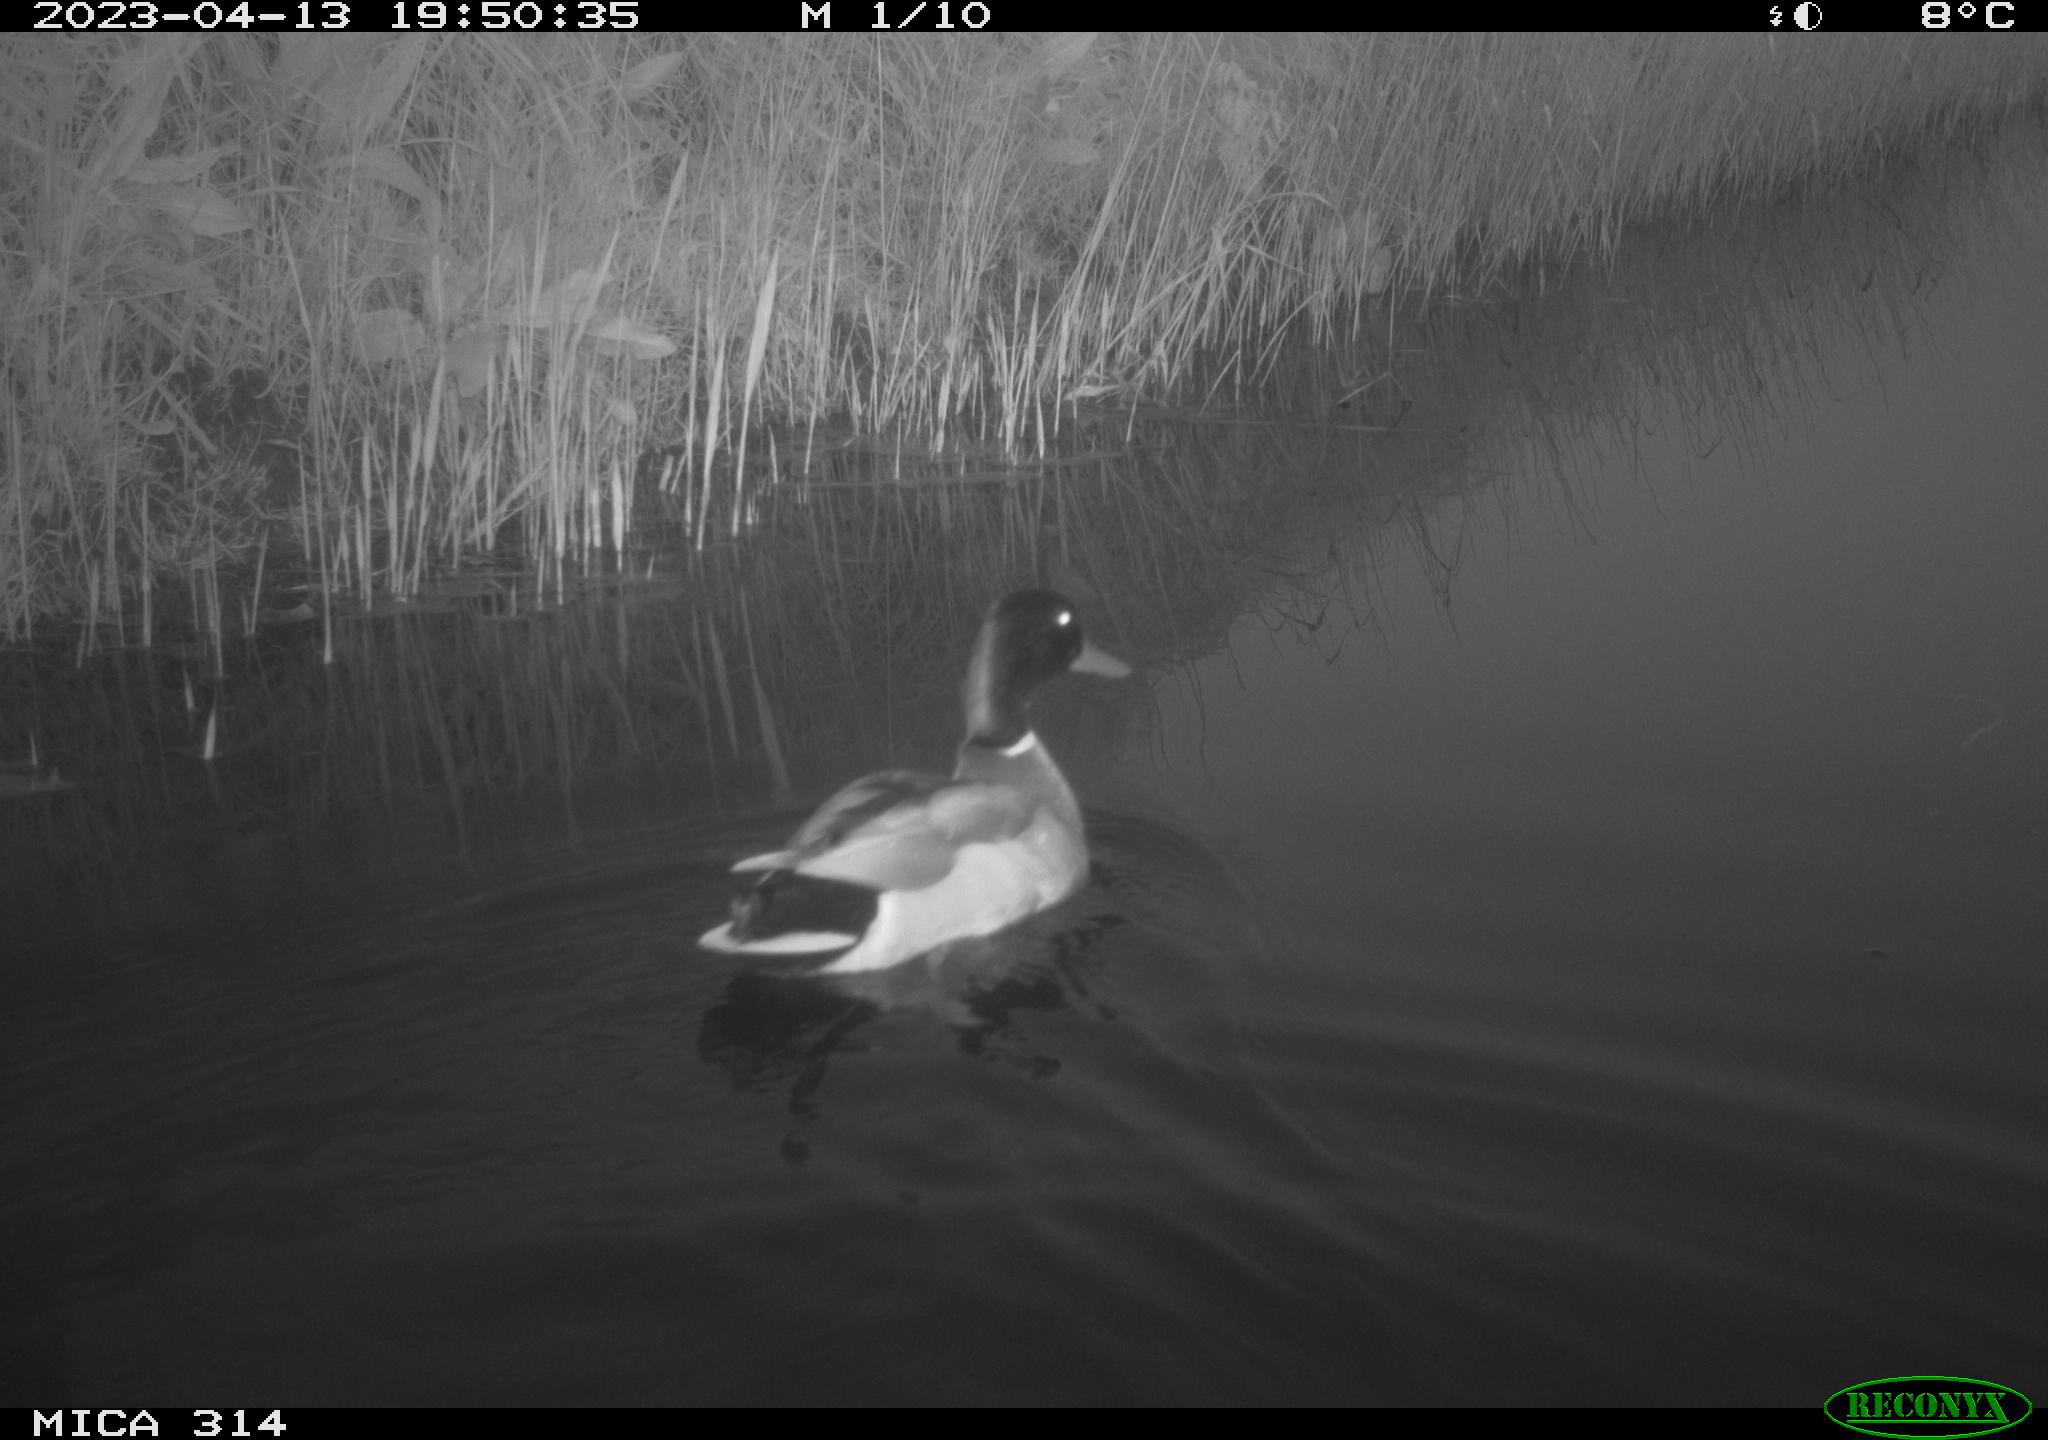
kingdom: Animalia
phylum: Chordata
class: Aves
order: Anseriformes
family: Anatidae
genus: Anas
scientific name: Anas
